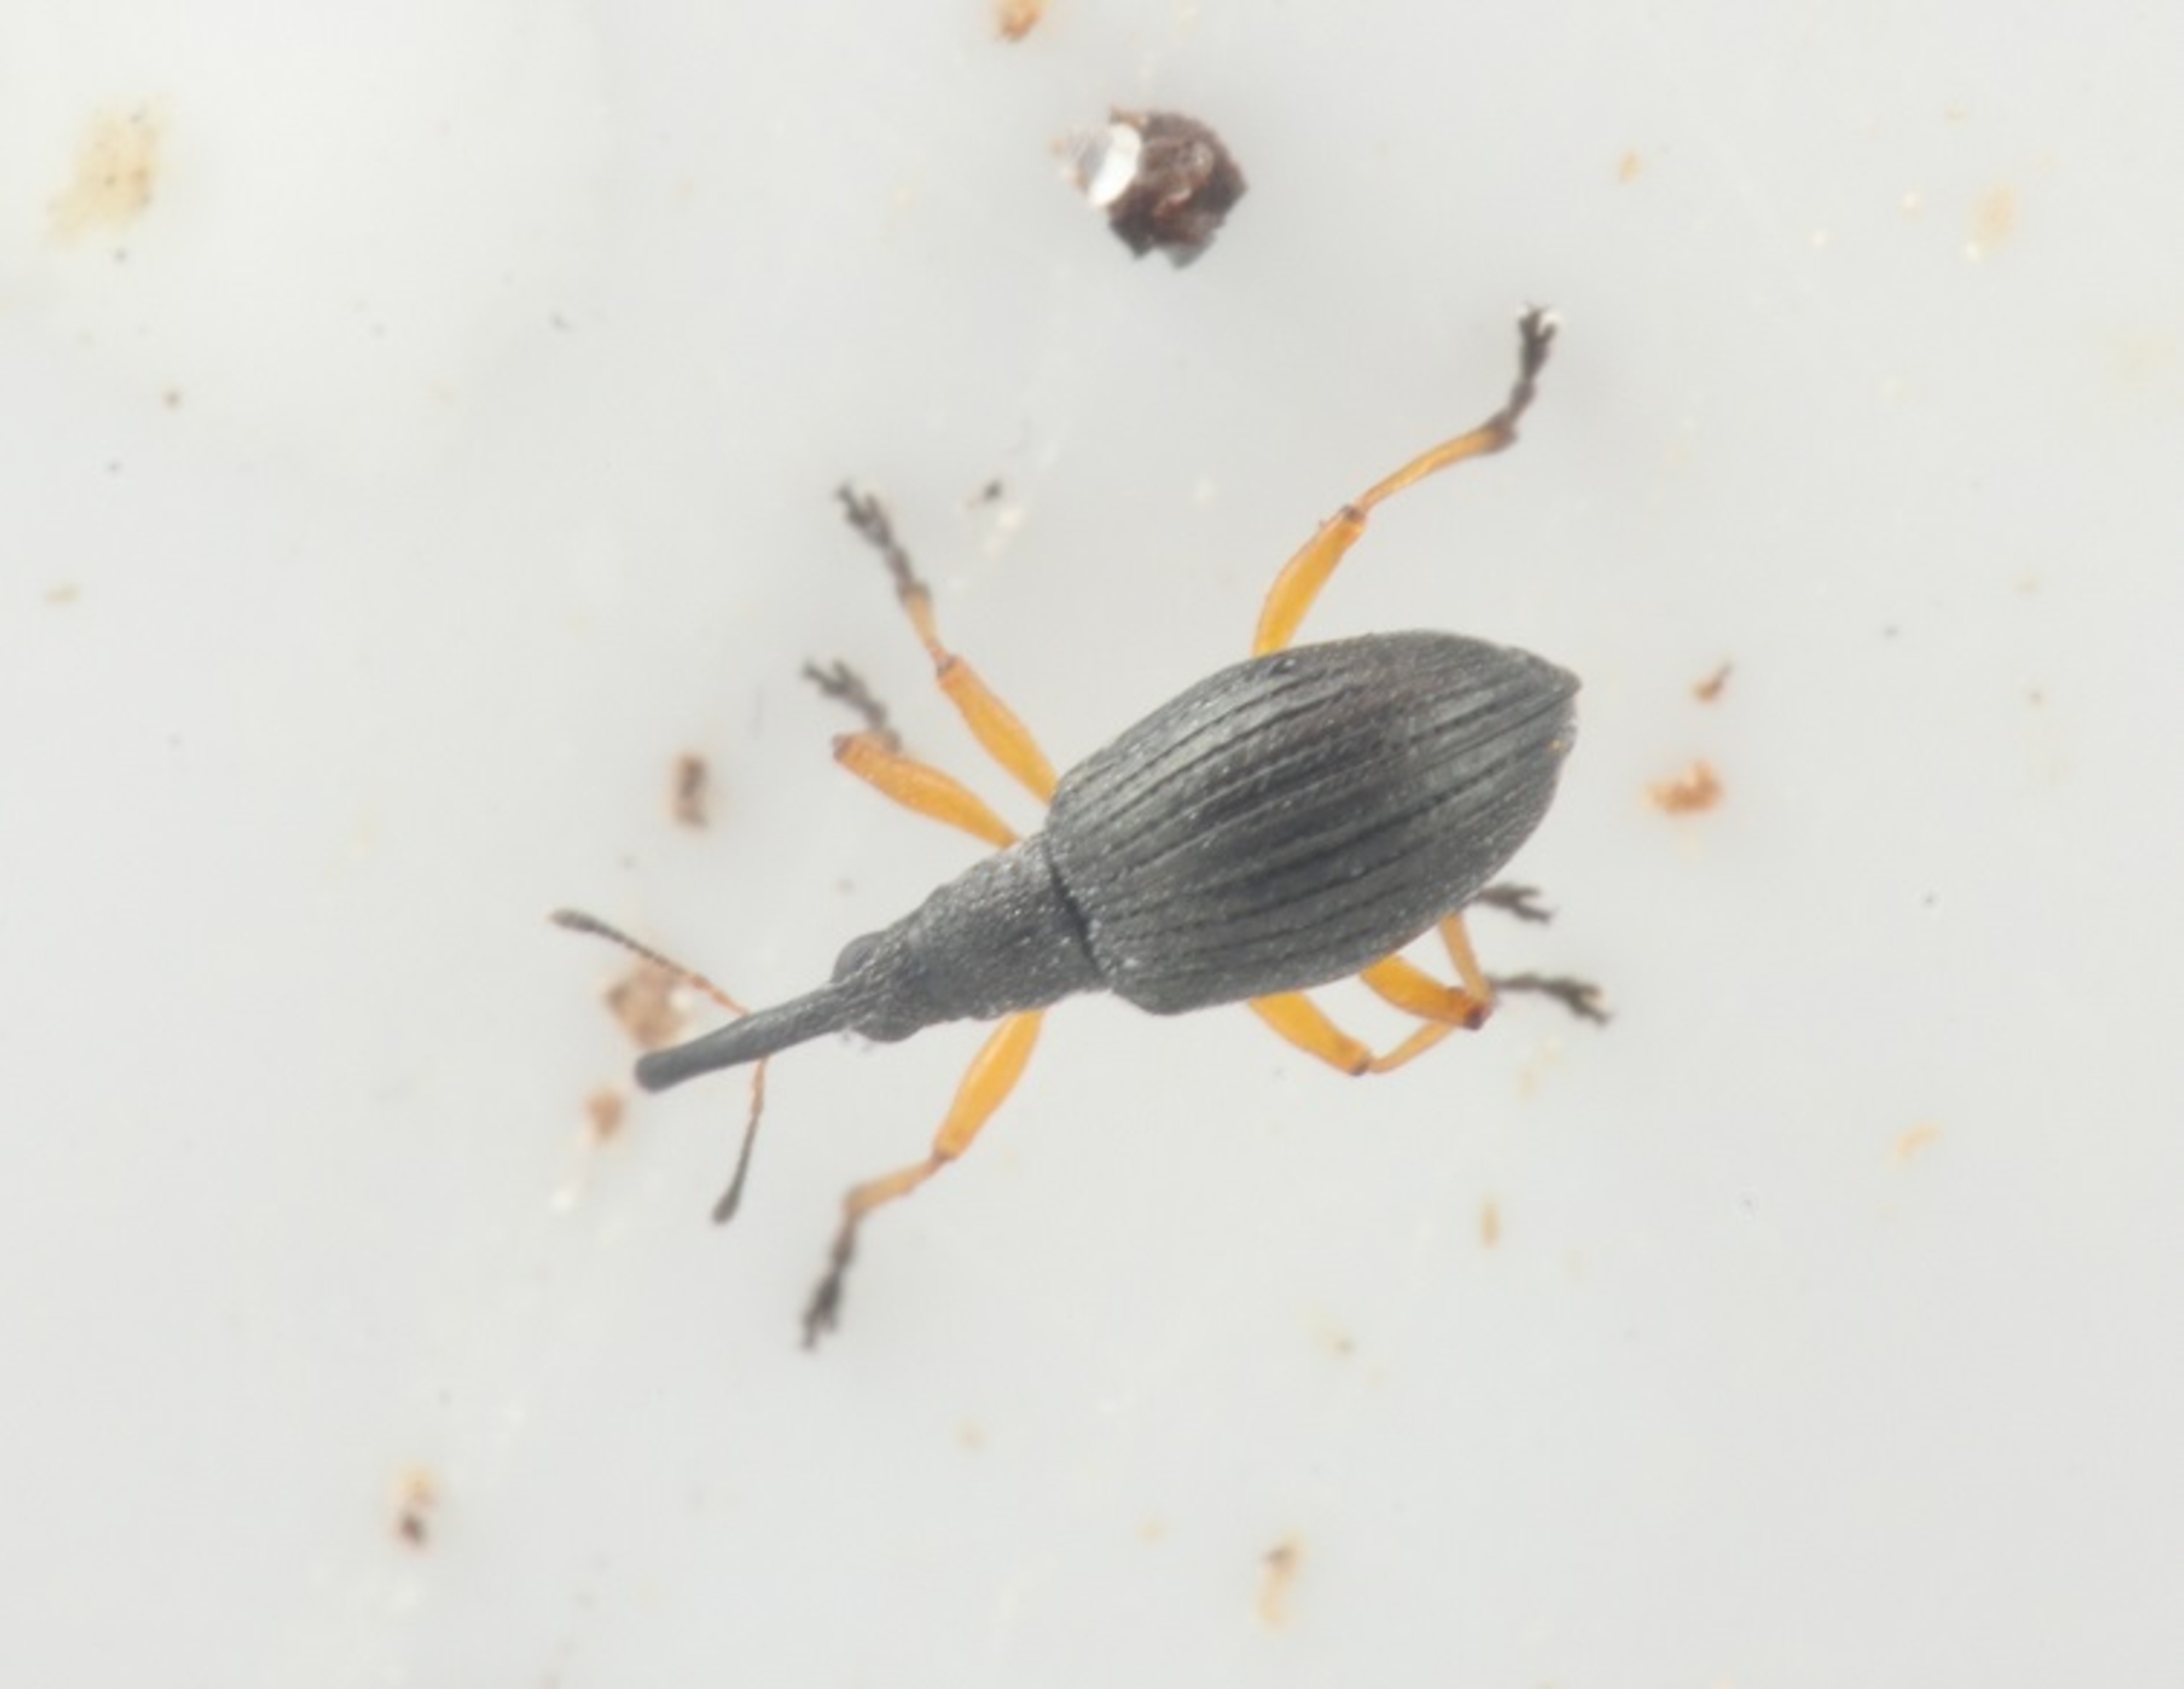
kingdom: Animalia
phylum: Arthropoda
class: Insecta
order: Coleoptera
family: Apionidae
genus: Protapion
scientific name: Protapion fulvipes
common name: Hvidkløversnudebille
